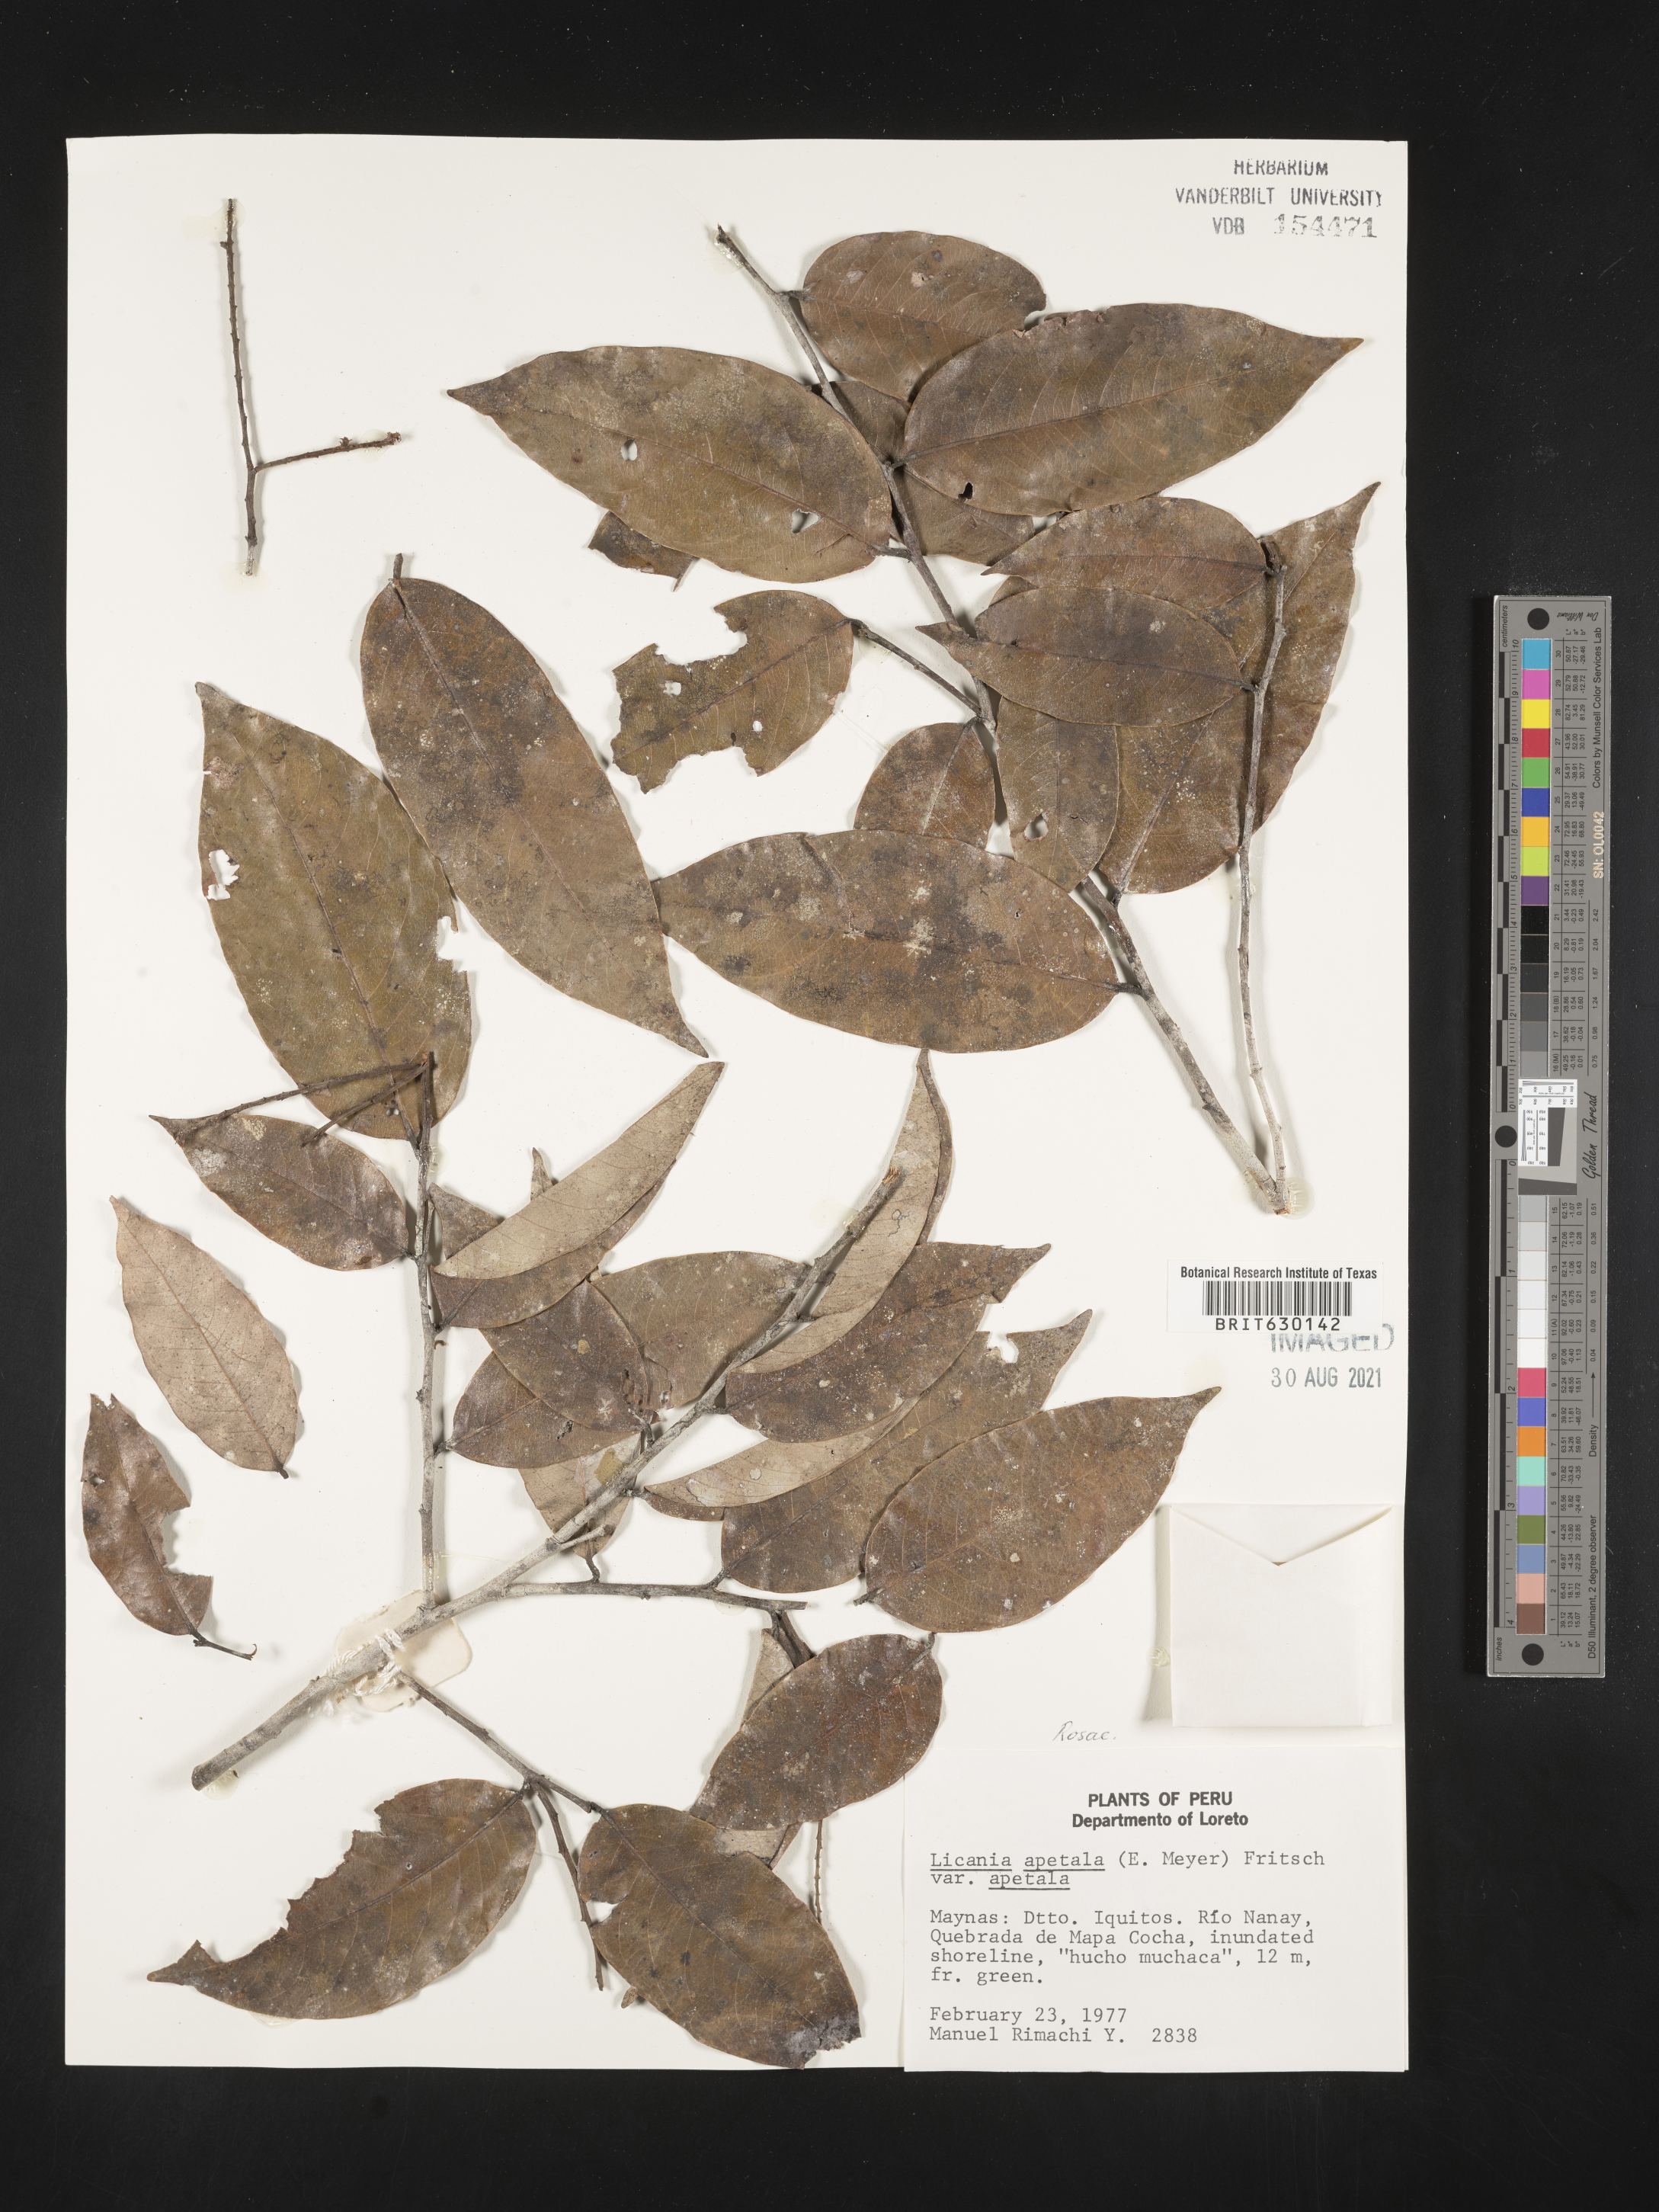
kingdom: Plantae
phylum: Tracheophyta
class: Magnoliopsida
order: Malpighiales
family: Chrysobalanaceae
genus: Leptobalanus
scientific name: Leptobalanus apetalus
